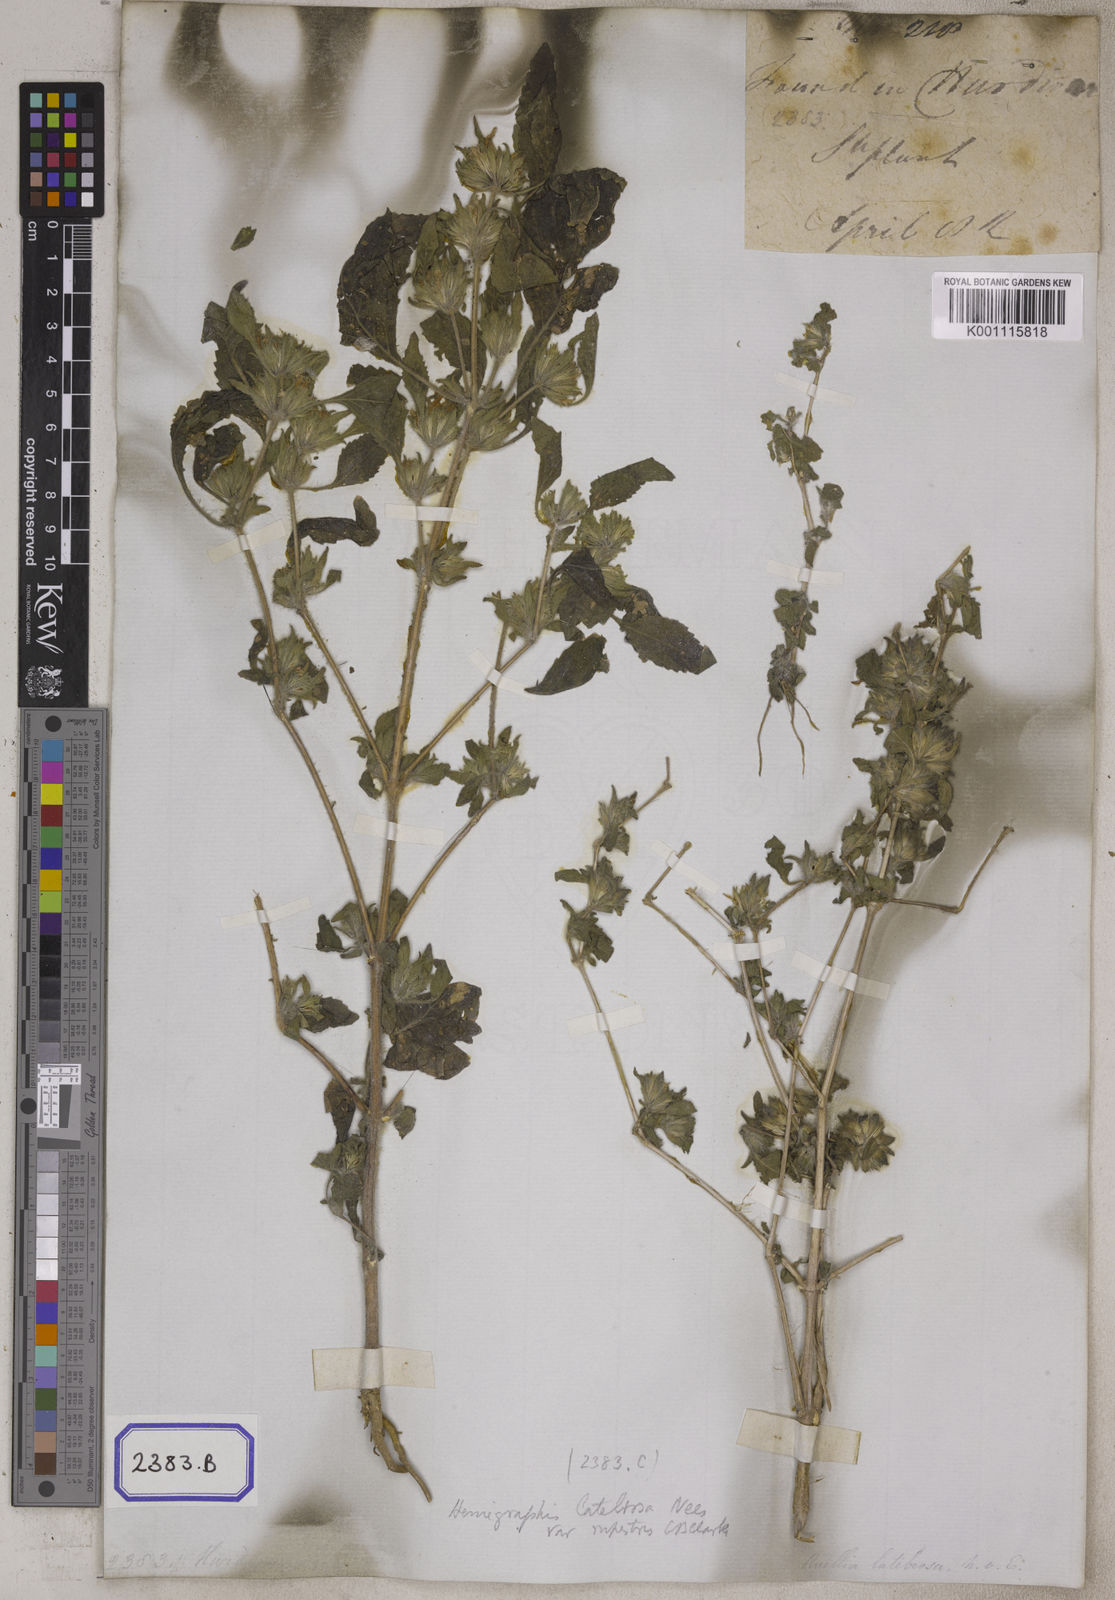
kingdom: Plantae
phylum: Tracheophyta
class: Magnoliopsida
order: Lamiales
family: Acanthaceae
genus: Ruellia
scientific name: Ruellia
